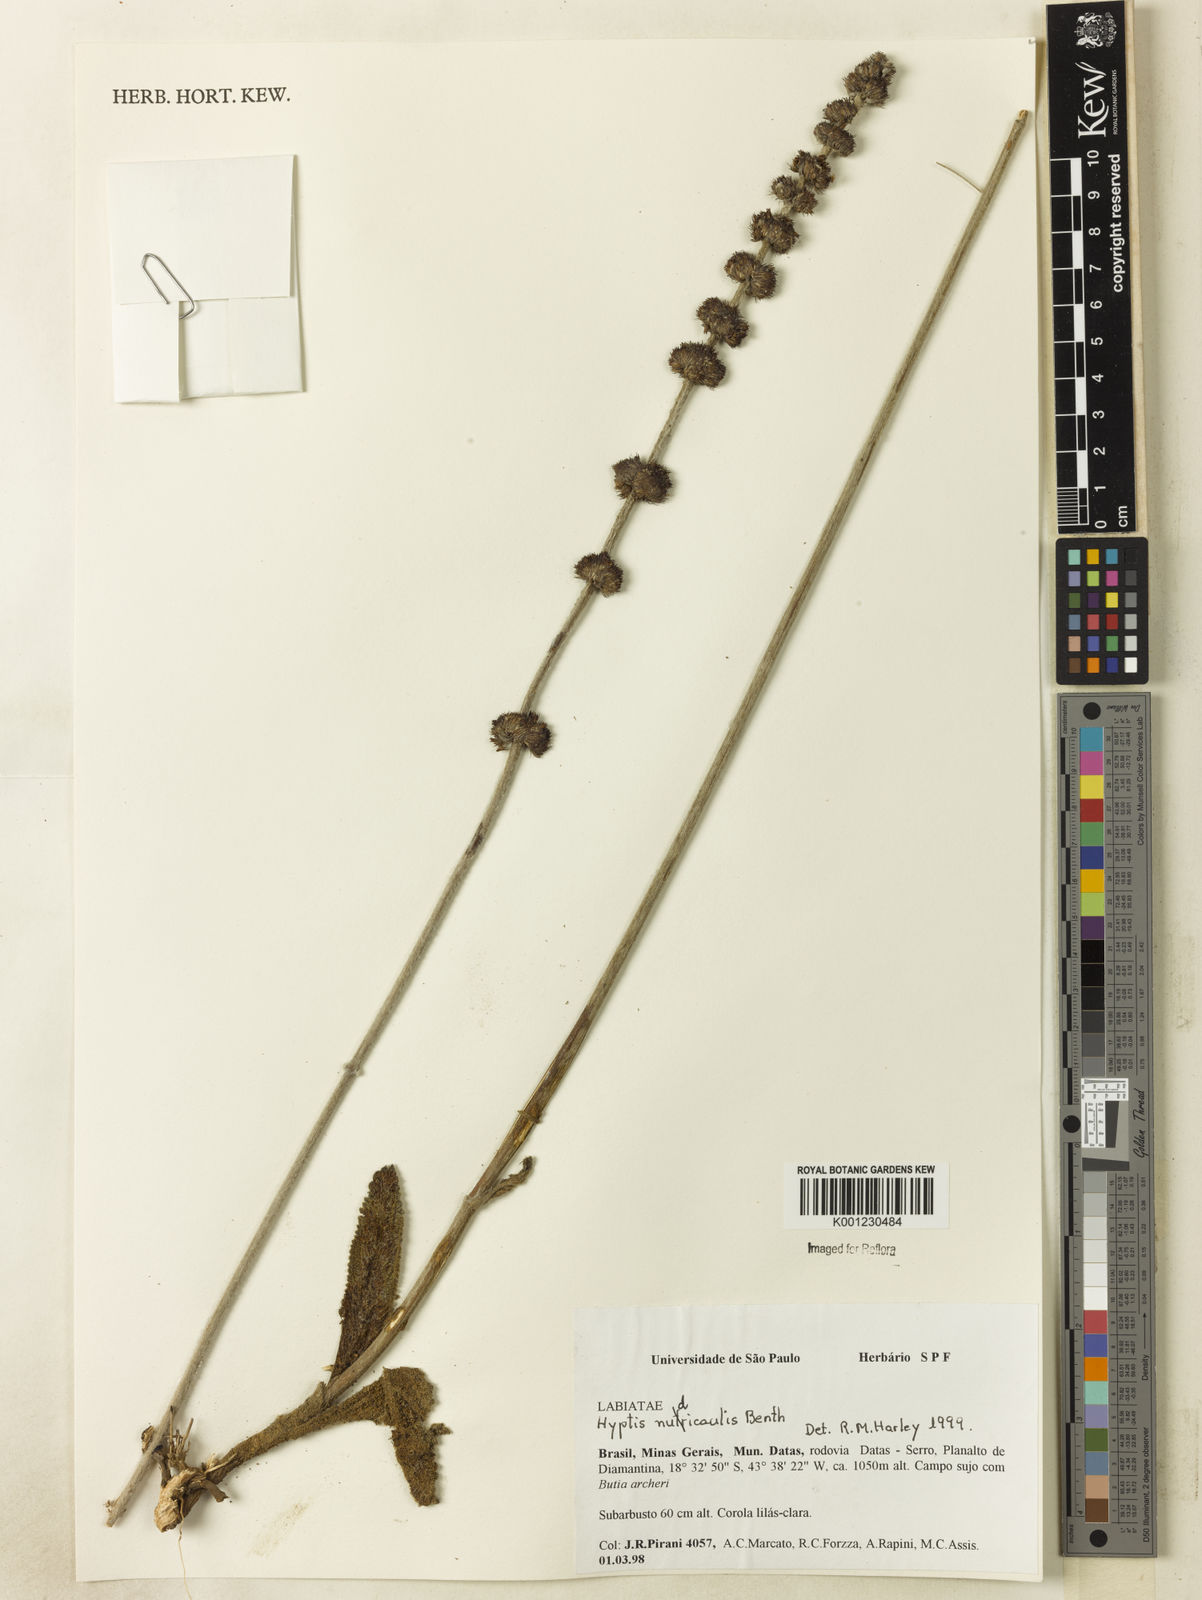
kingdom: Plantae
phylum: Tracheophyta
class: Magnoliopsida
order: Lamiales
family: Lamiaceae
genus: Hyptis
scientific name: Hyptis nudicaulis
